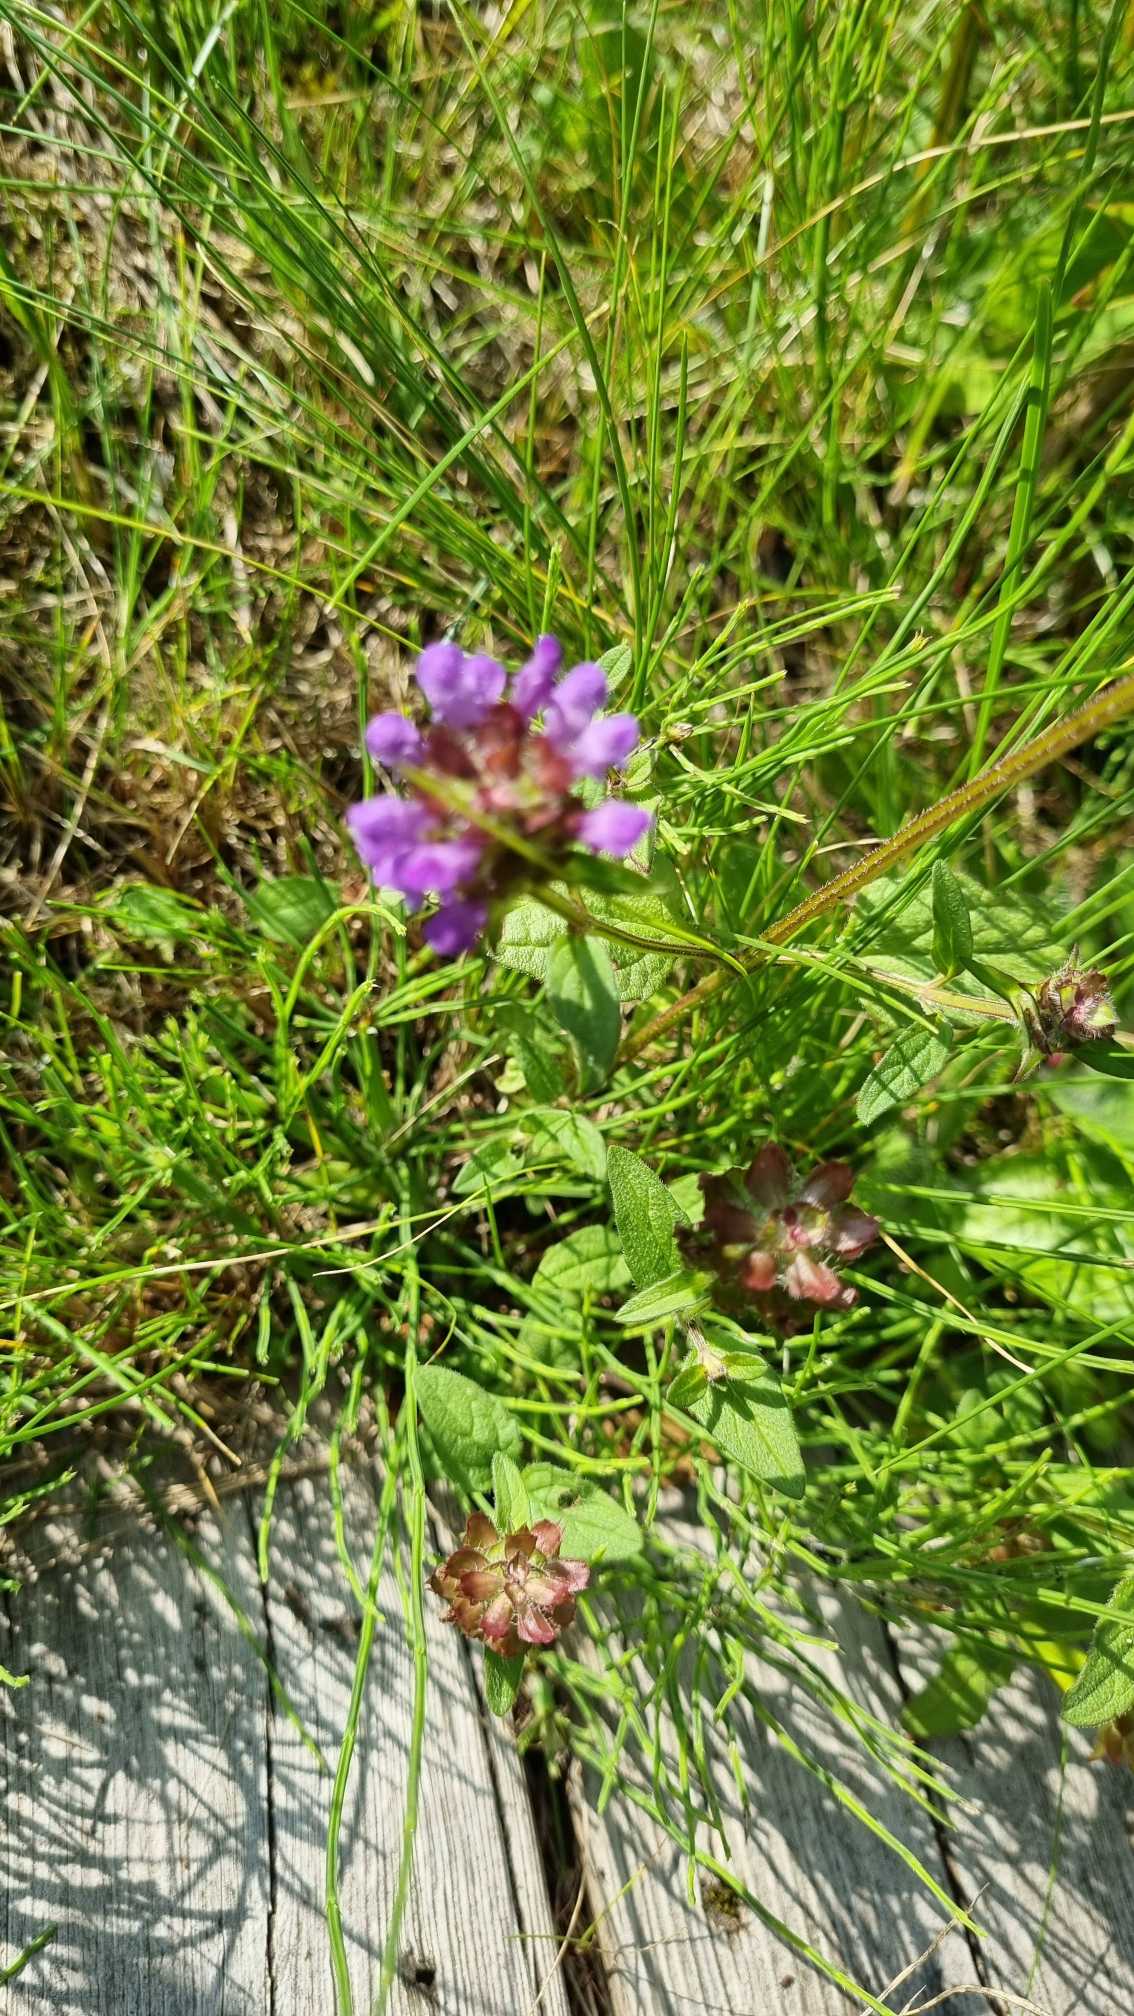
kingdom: Plantae
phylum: Tracheophyta
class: Magnoliopsida
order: Lamiales
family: Lamiaceae
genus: Prunella
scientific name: Prunella vulgaris
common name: Almindelig brunelle
